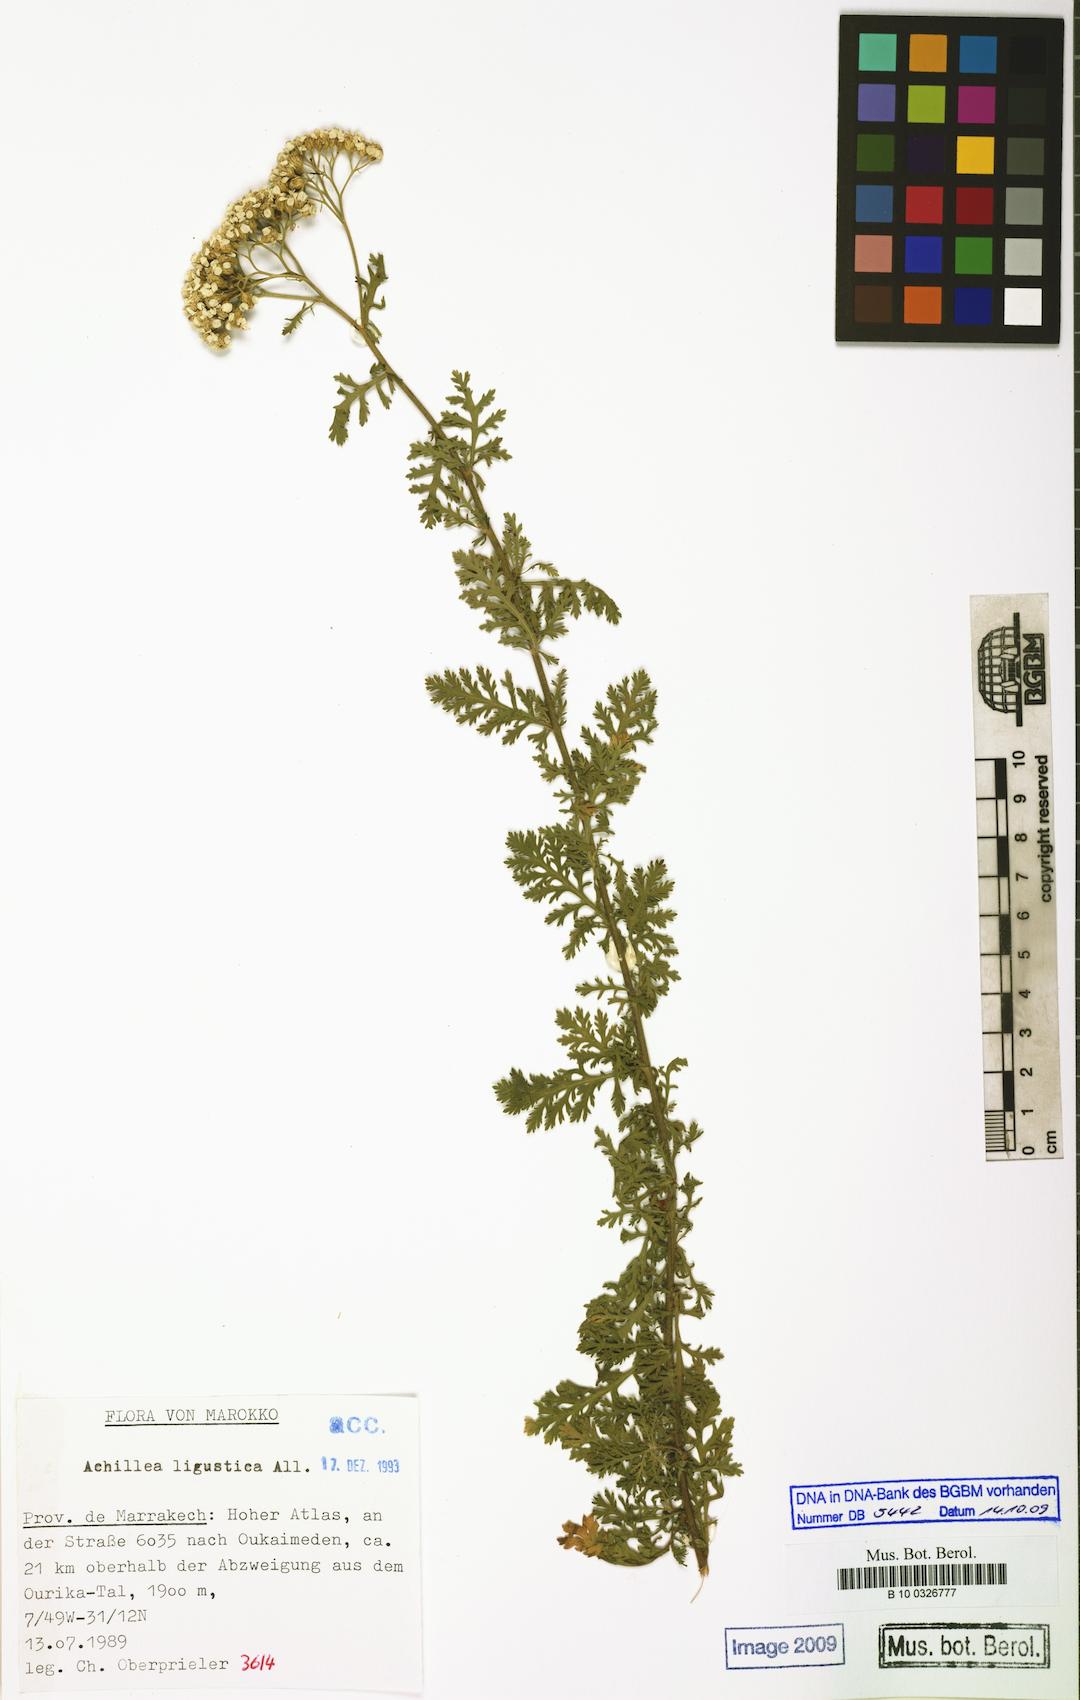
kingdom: Plantae
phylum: Tracheophyta
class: Magnoliopsida
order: Asterales
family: Asteraceae
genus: Achillea
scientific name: Achillea ligustica
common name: Southern yarrow
